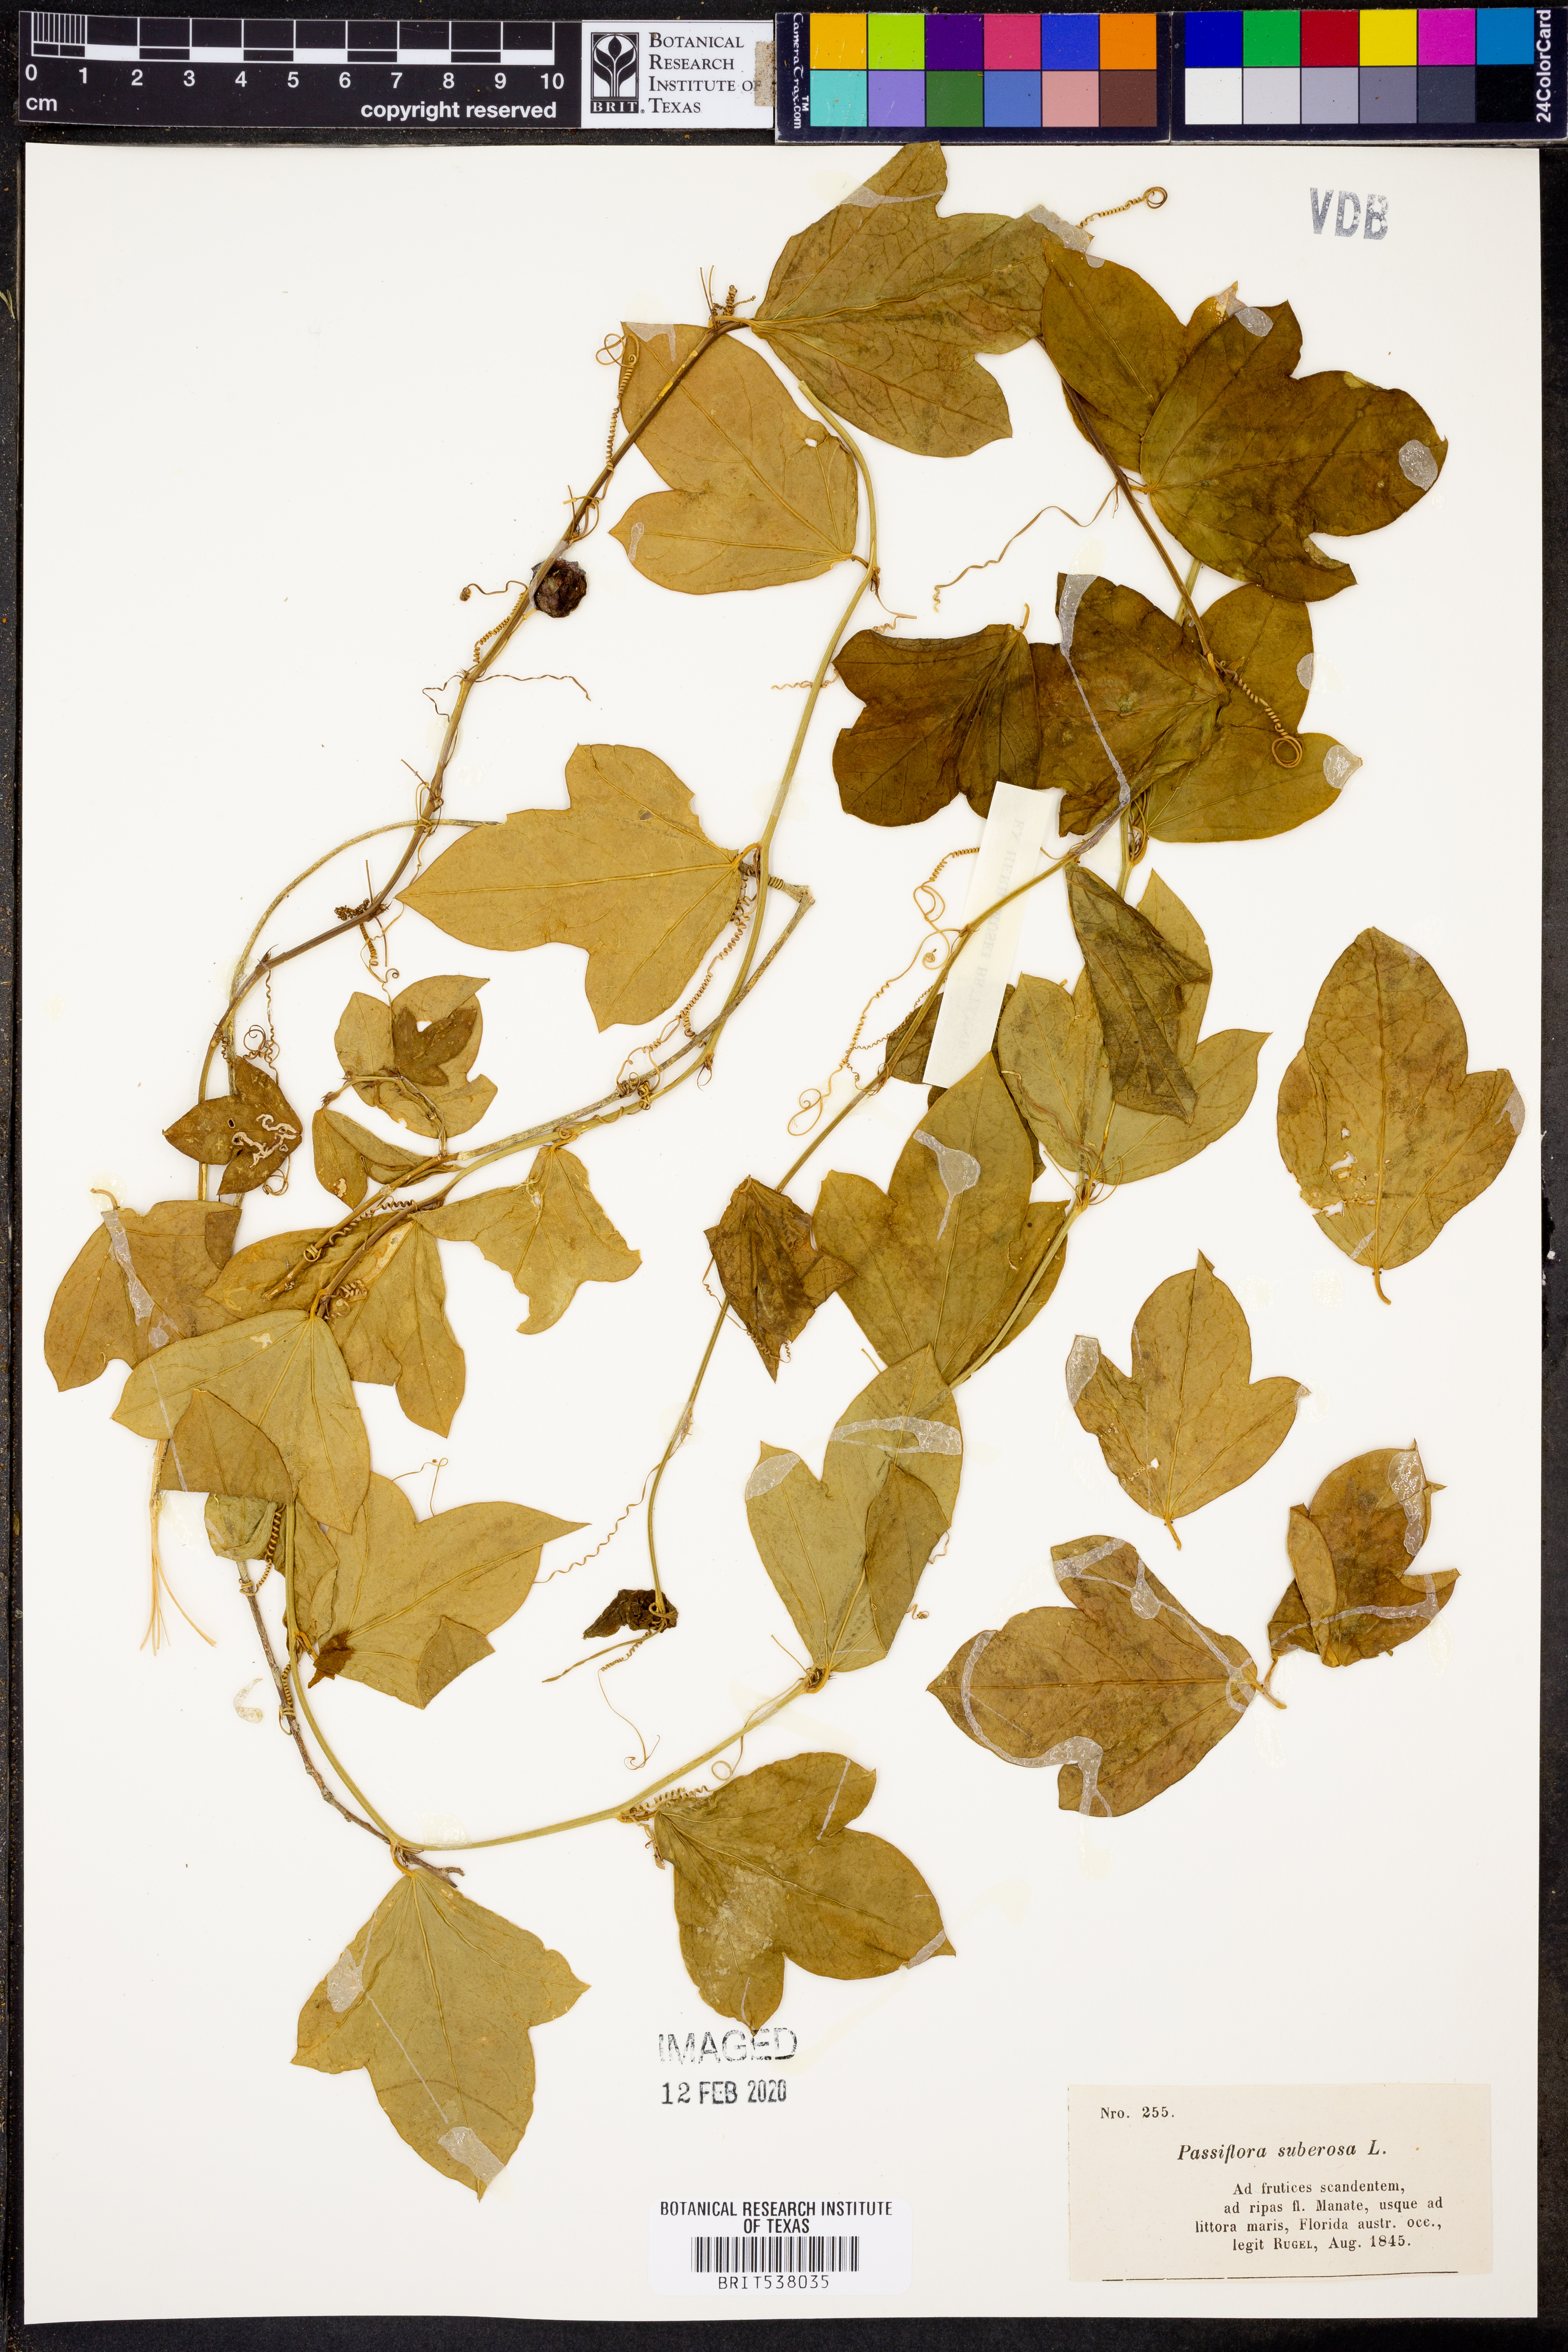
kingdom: Plantae
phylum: Tracheophyta
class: Magnoliopsida
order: Malpighiales
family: Passifloraceae
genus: Passiflora
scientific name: Passiflora suberosa
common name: Wild passionfruit
